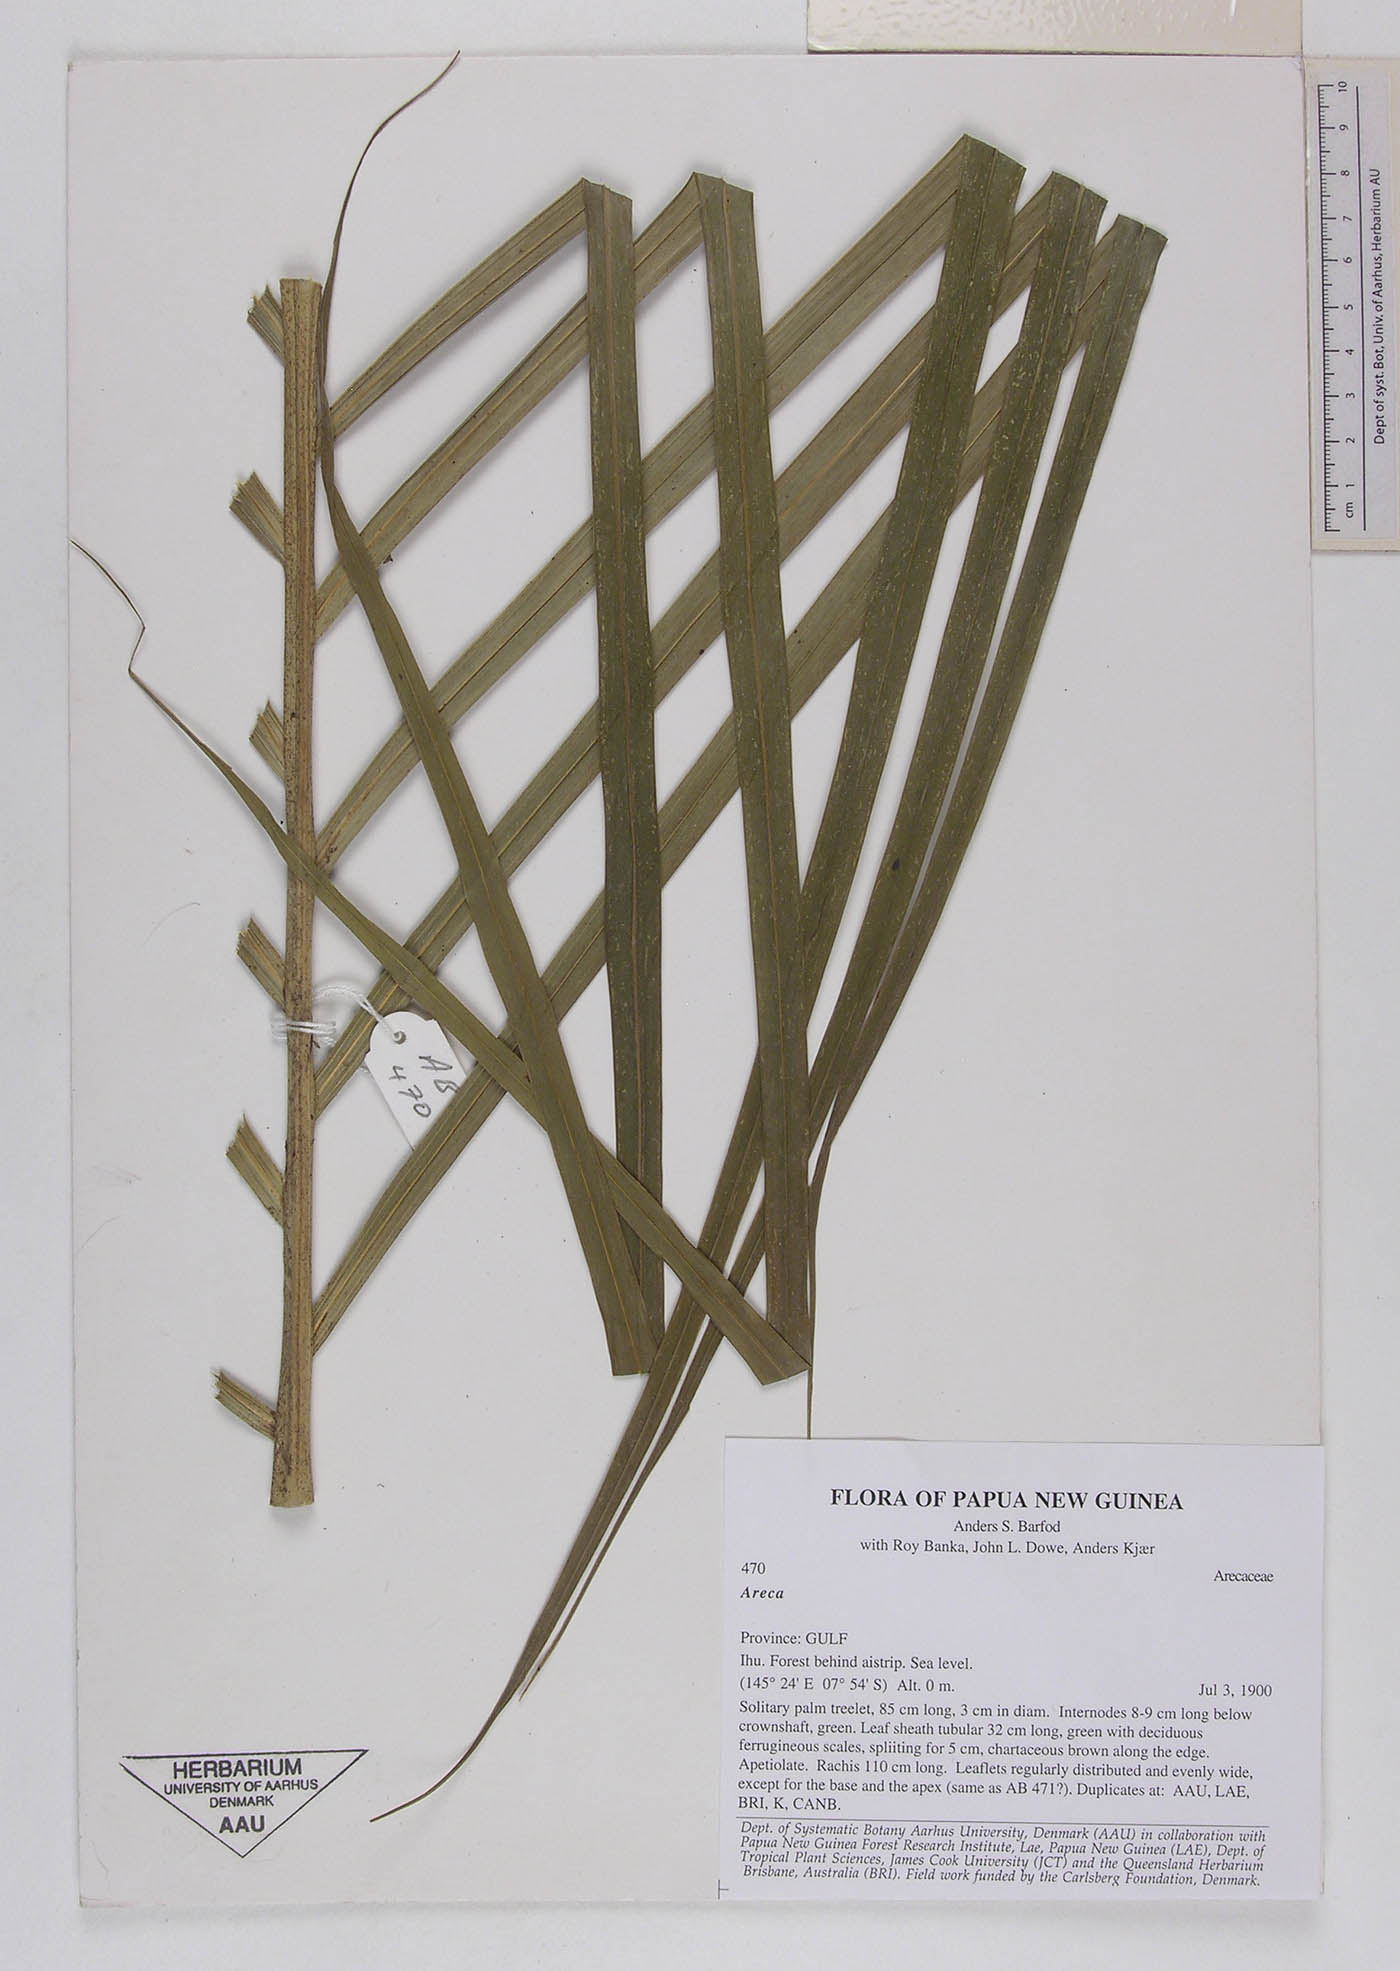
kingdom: Plantae
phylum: Tracheophyta
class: Liliopsida
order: Arecales
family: Arecaceae
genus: Areca
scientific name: Areca
